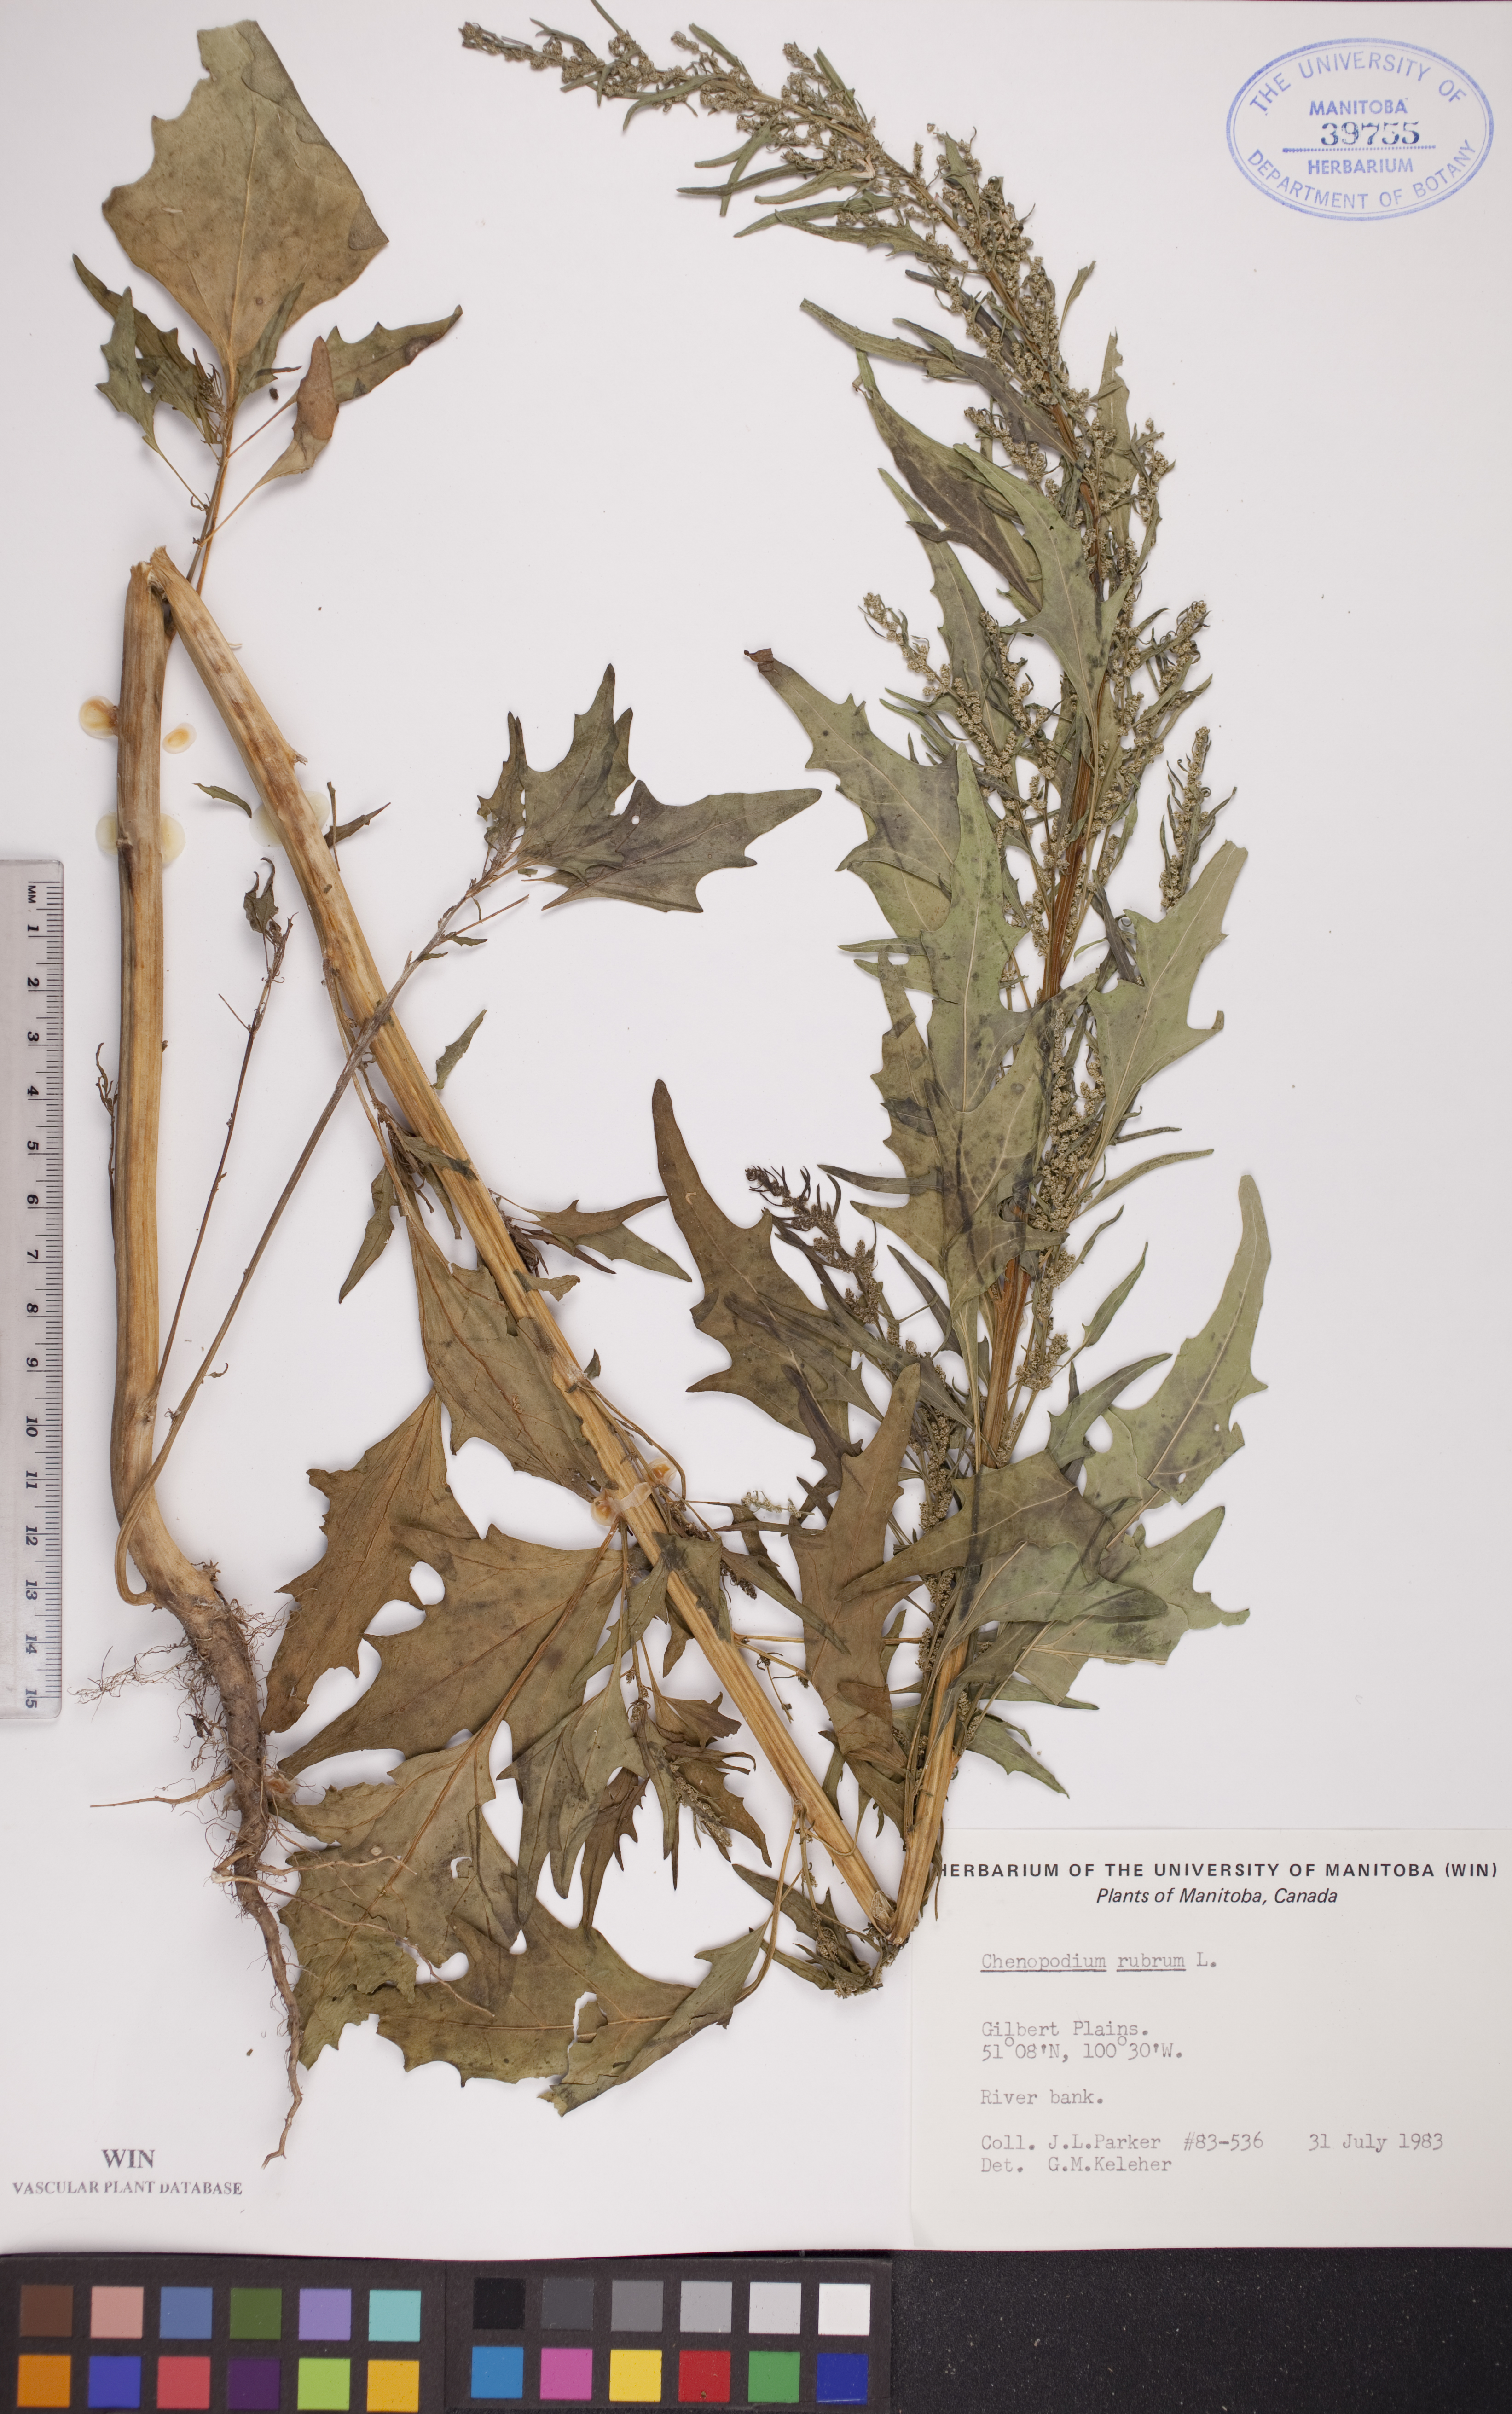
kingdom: Plantae
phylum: Tracheophyta
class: Magnoliopsida
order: Caryophyllales
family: Amaranthaceae
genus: Oxybasis
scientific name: Oxybasis rubra
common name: Red goosefoot
